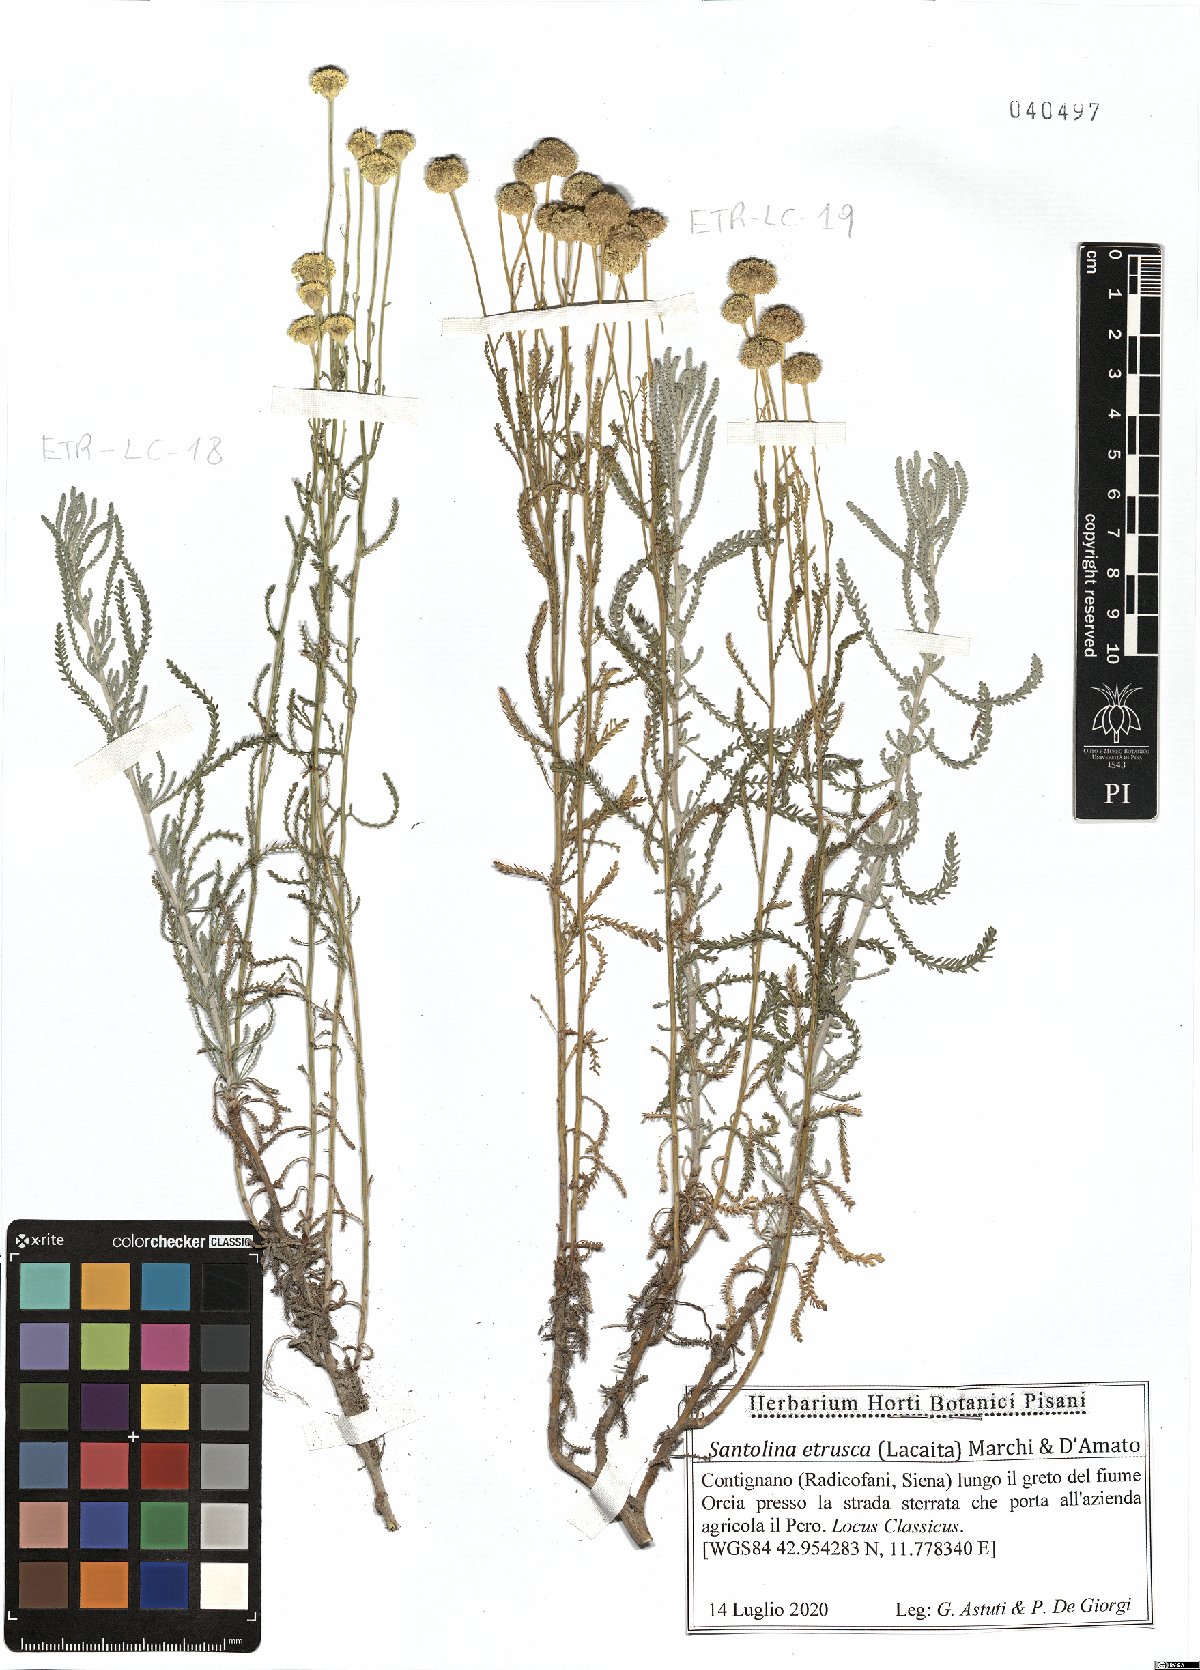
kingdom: Plantae
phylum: Tracheophyta
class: Magnoliopsida
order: Asterales
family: Asteraceae
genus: Santolina
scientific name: Santolina etrusca
